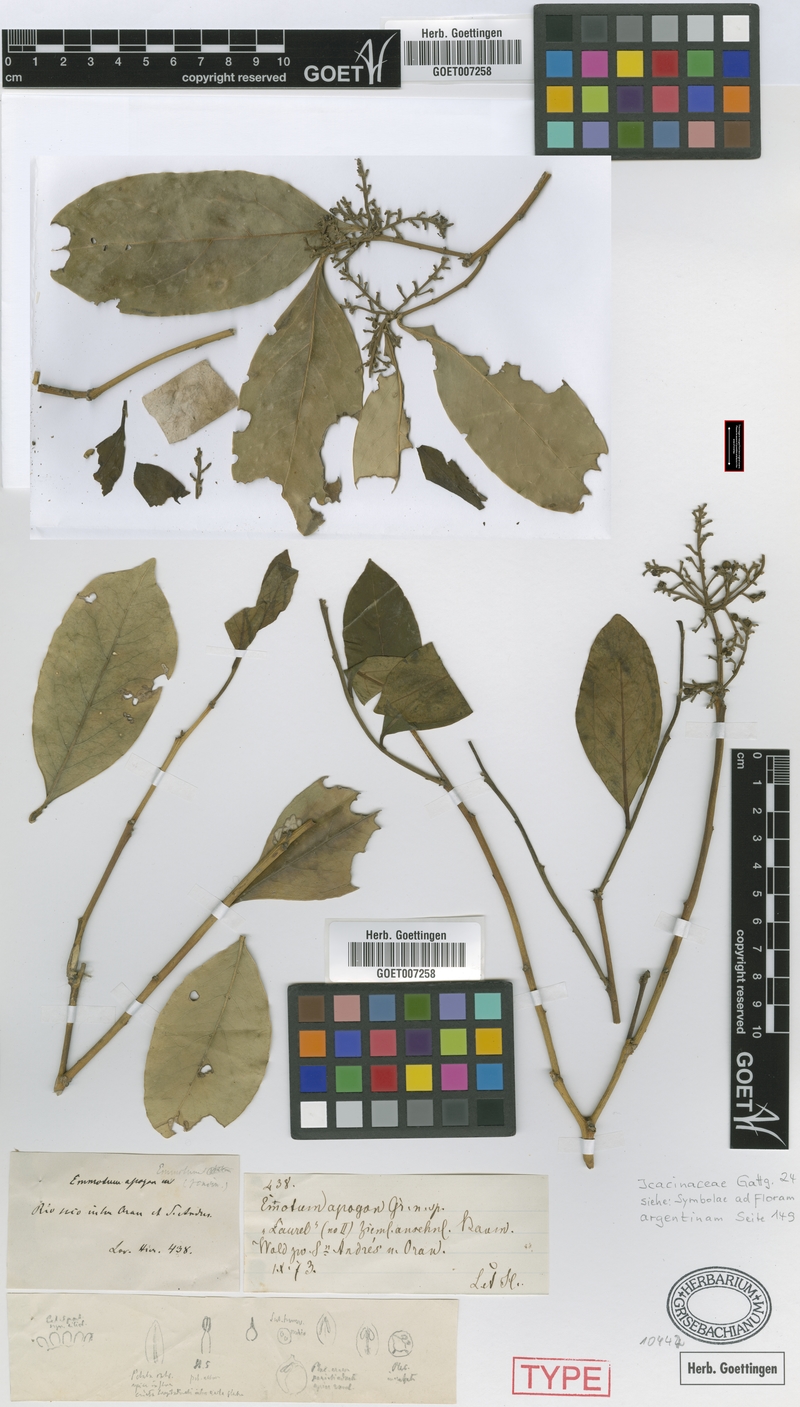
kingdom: Plantae
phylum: Tracheophyta
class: Magnoliopsida
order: Cardiopteridales
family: Cardiopteridaceae
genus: Citronella
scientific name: Citronella apogon
